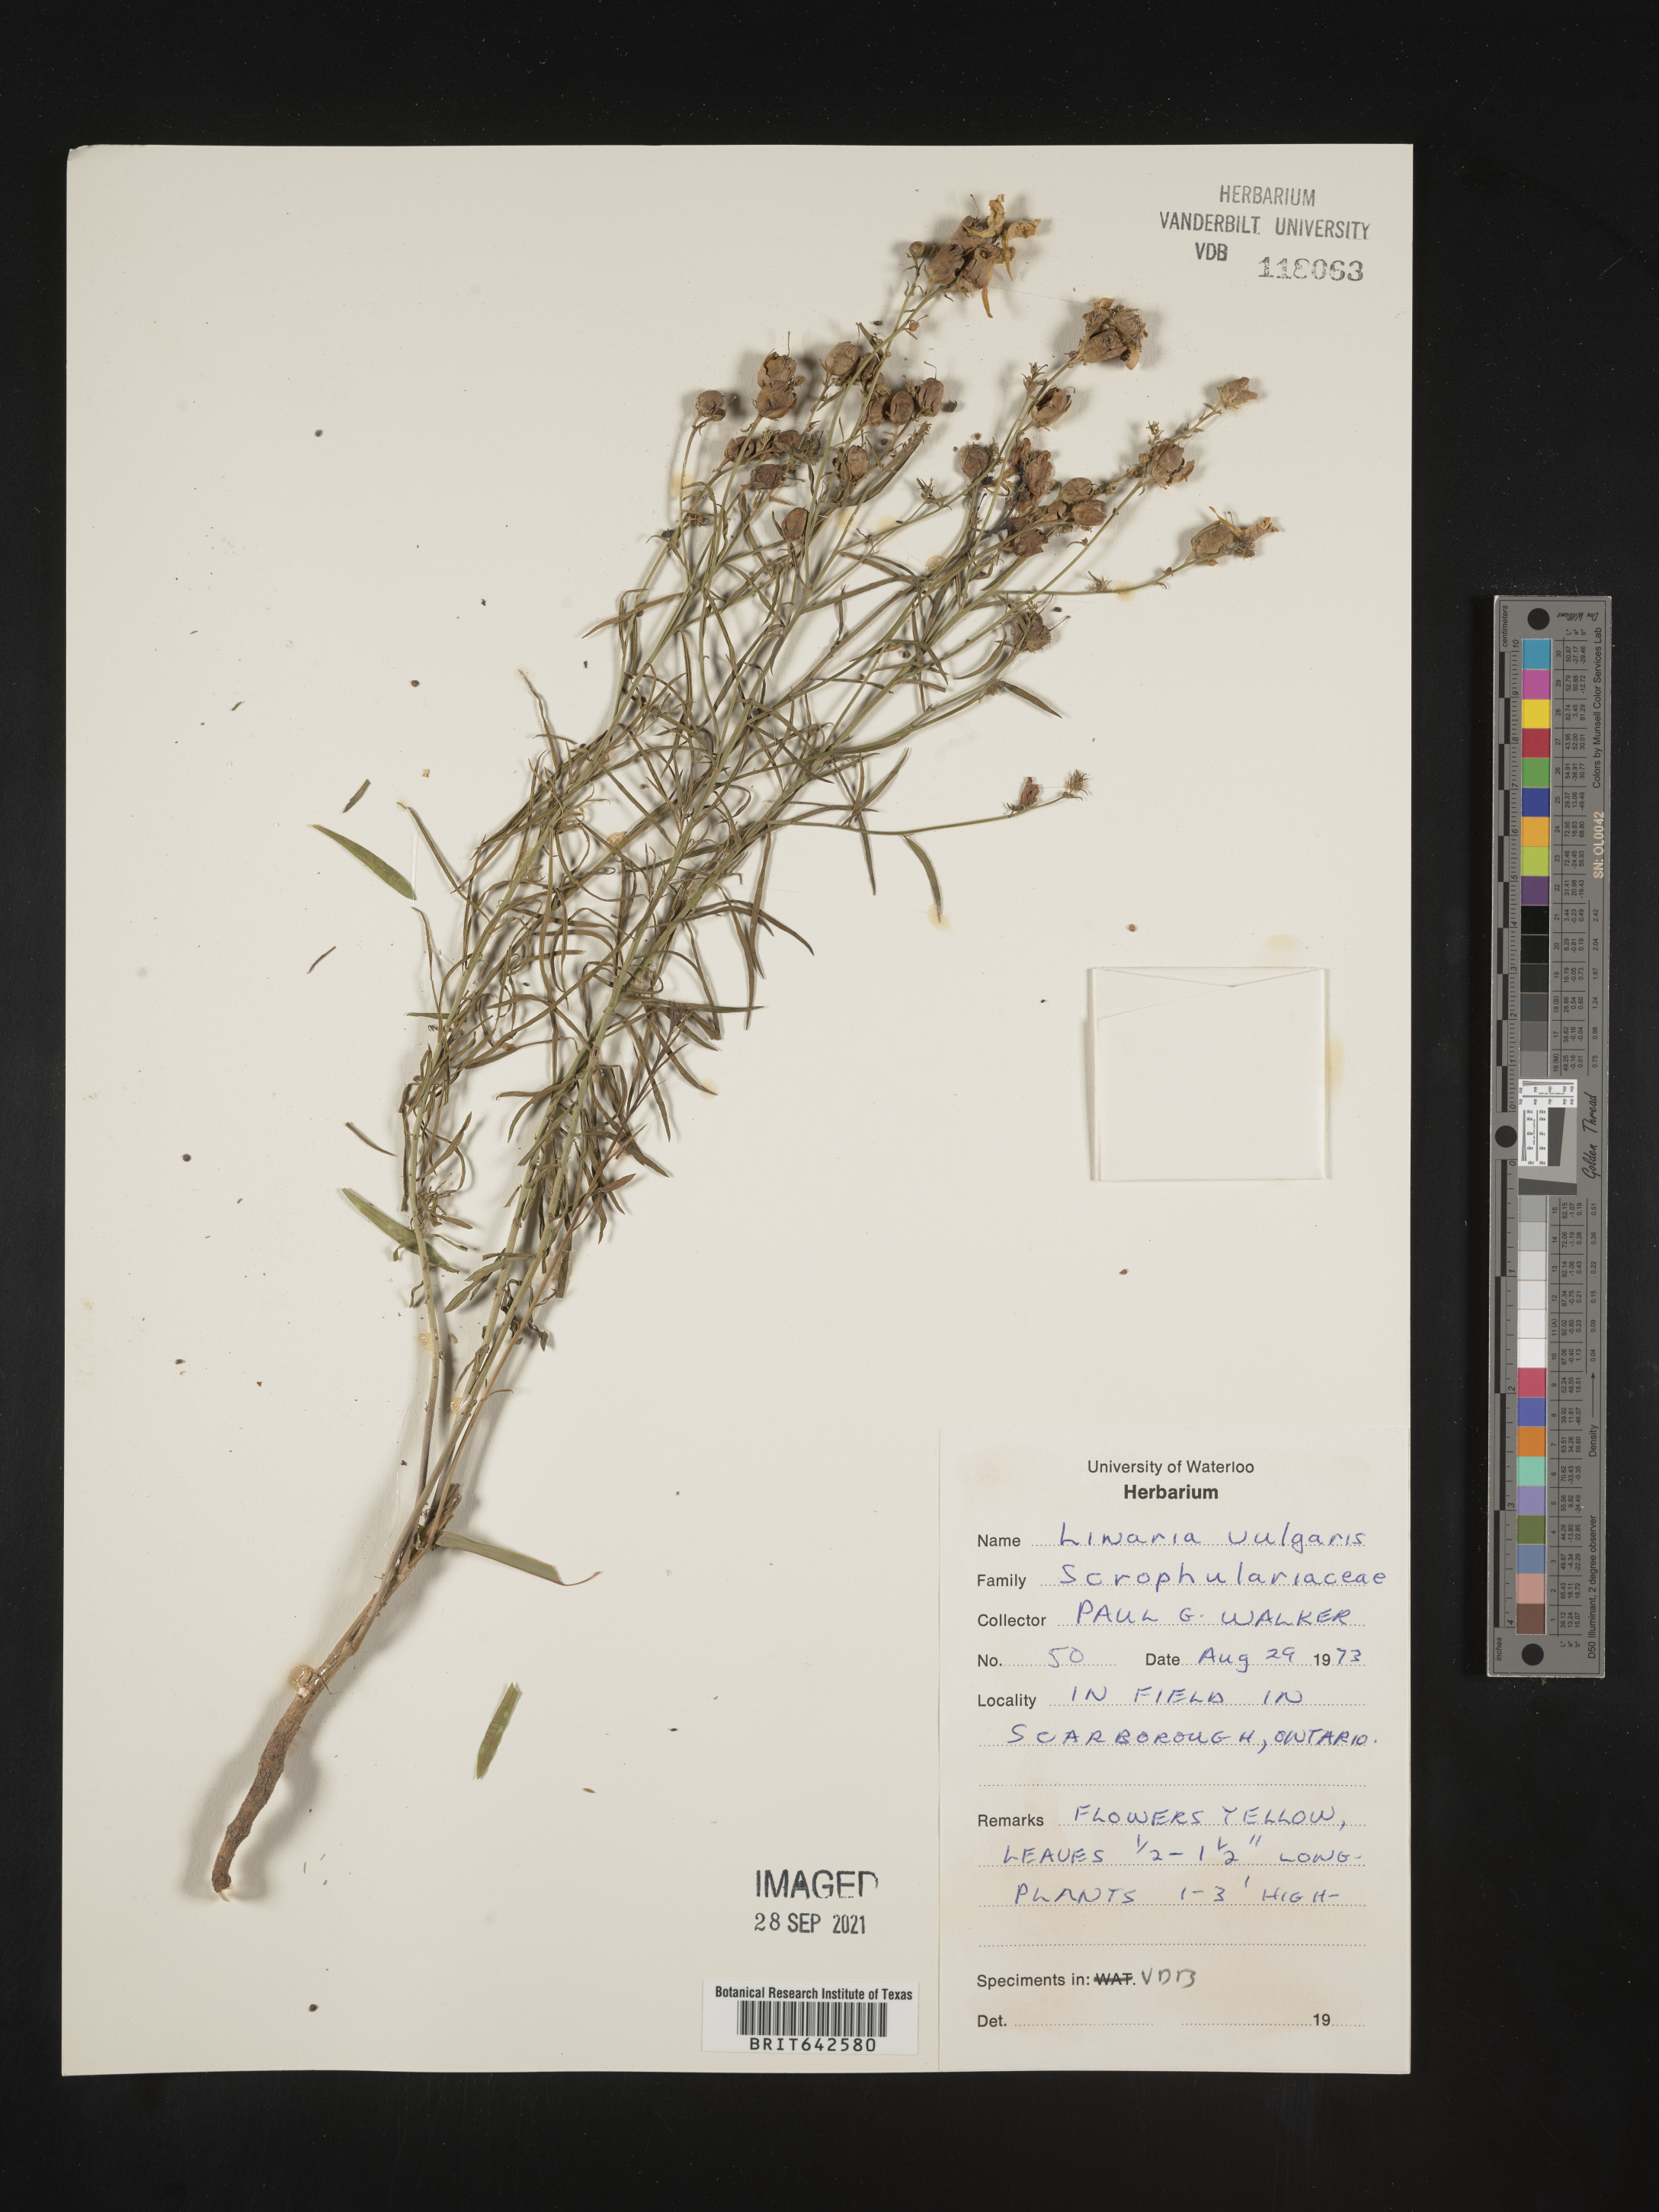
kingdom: Plantae
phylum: Tracheophyta
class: Magnoliopsida
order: Lamiales
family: Plantaginaceae
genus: Linaria
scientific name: Linaria
